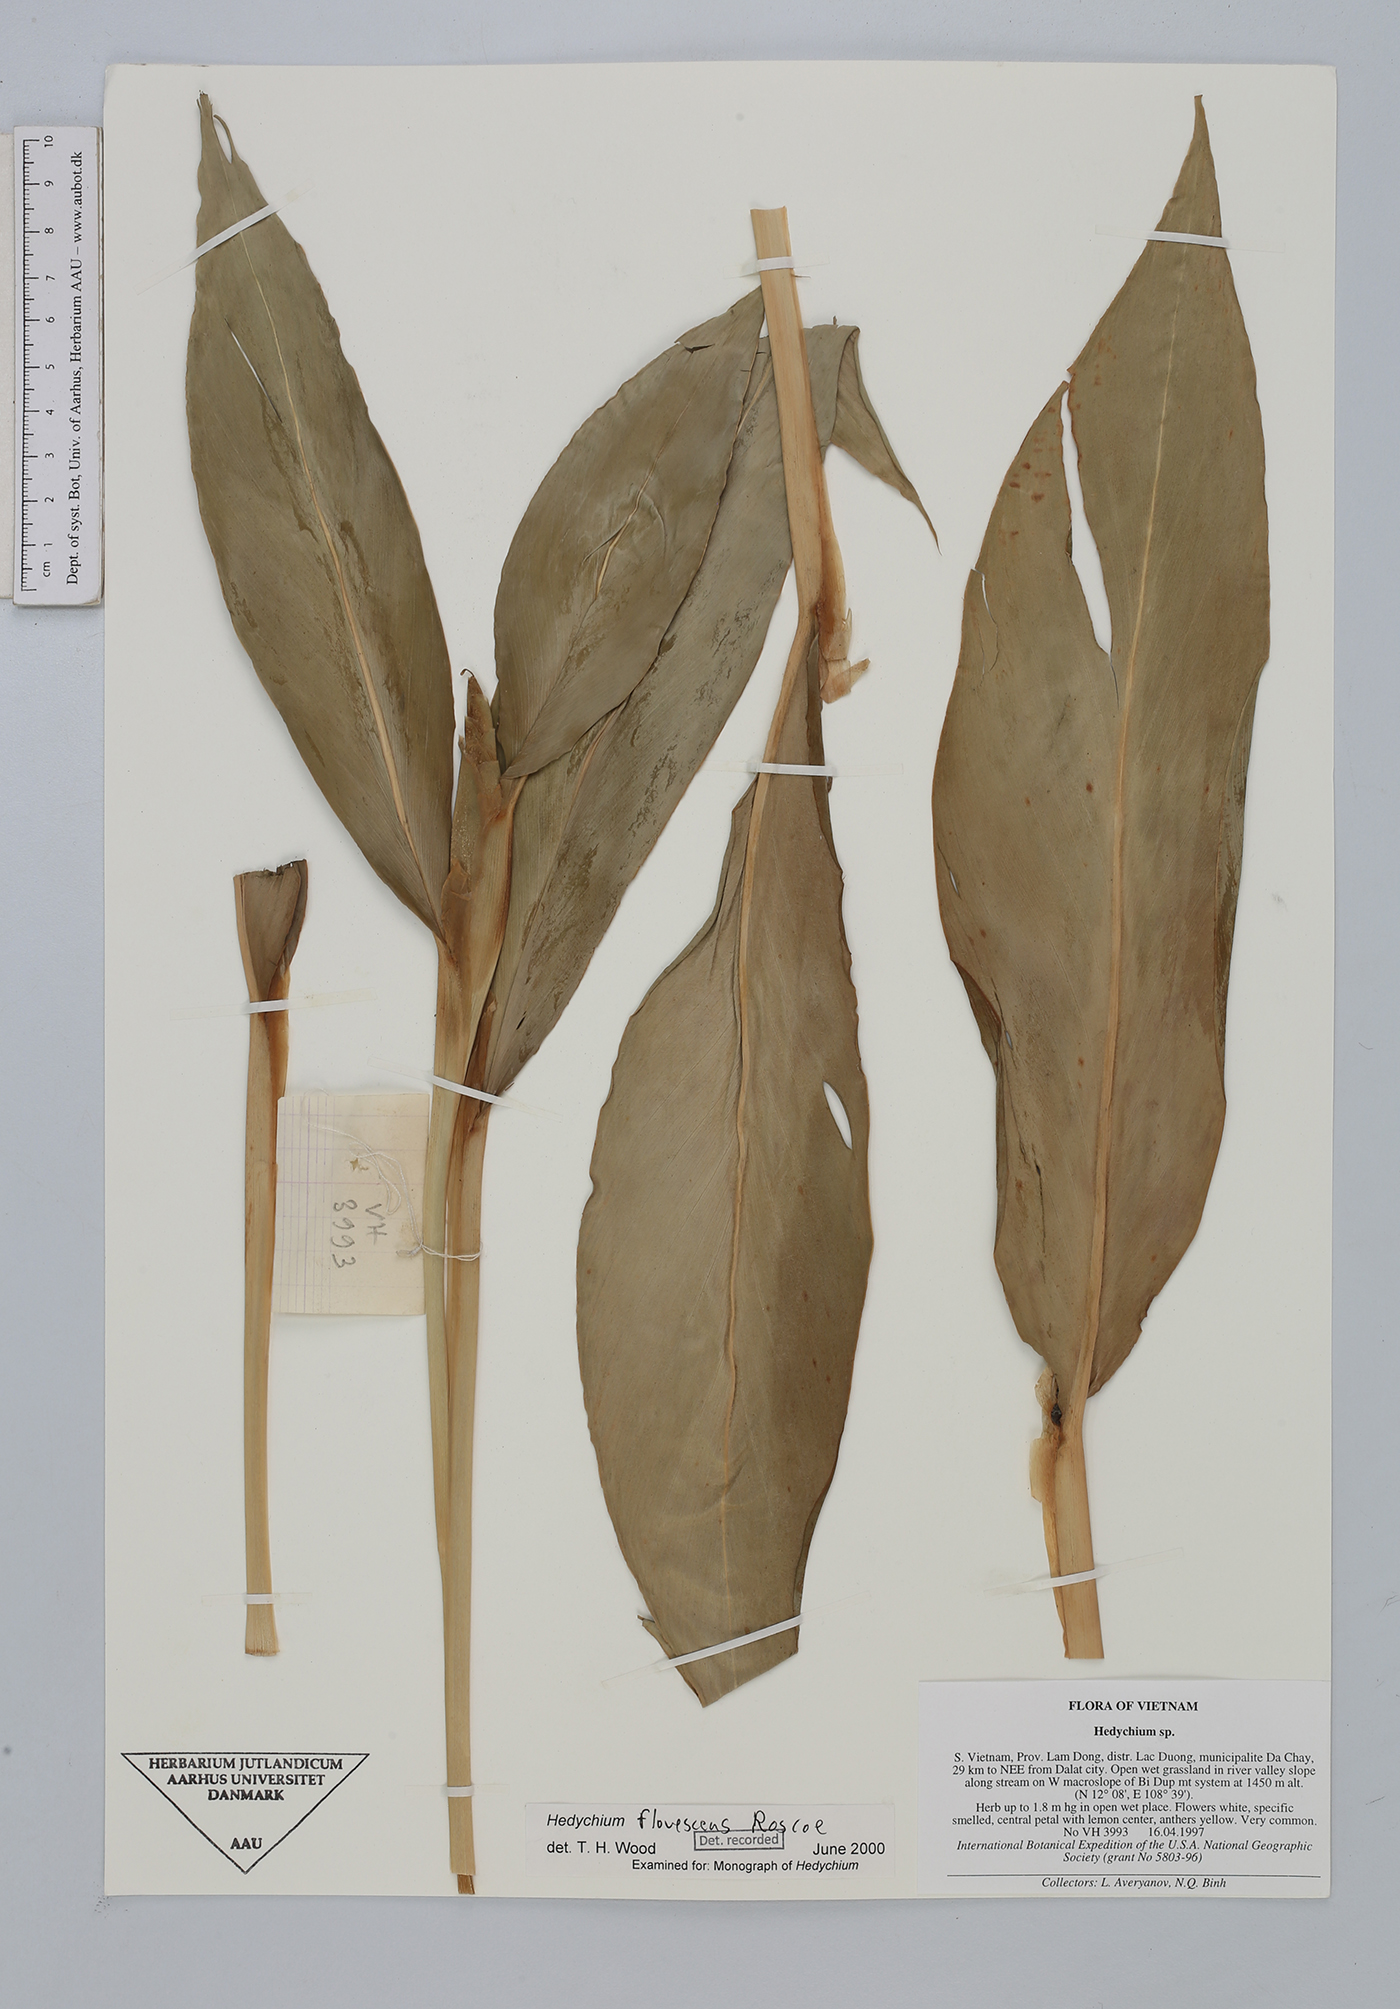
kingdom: Plantae
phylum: Tracheophyta
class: Liliopsida
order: Zingiberales
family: Zingiberaceae
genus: Hedychium
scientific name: Hedychium flavescens
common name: Yellow ginger
